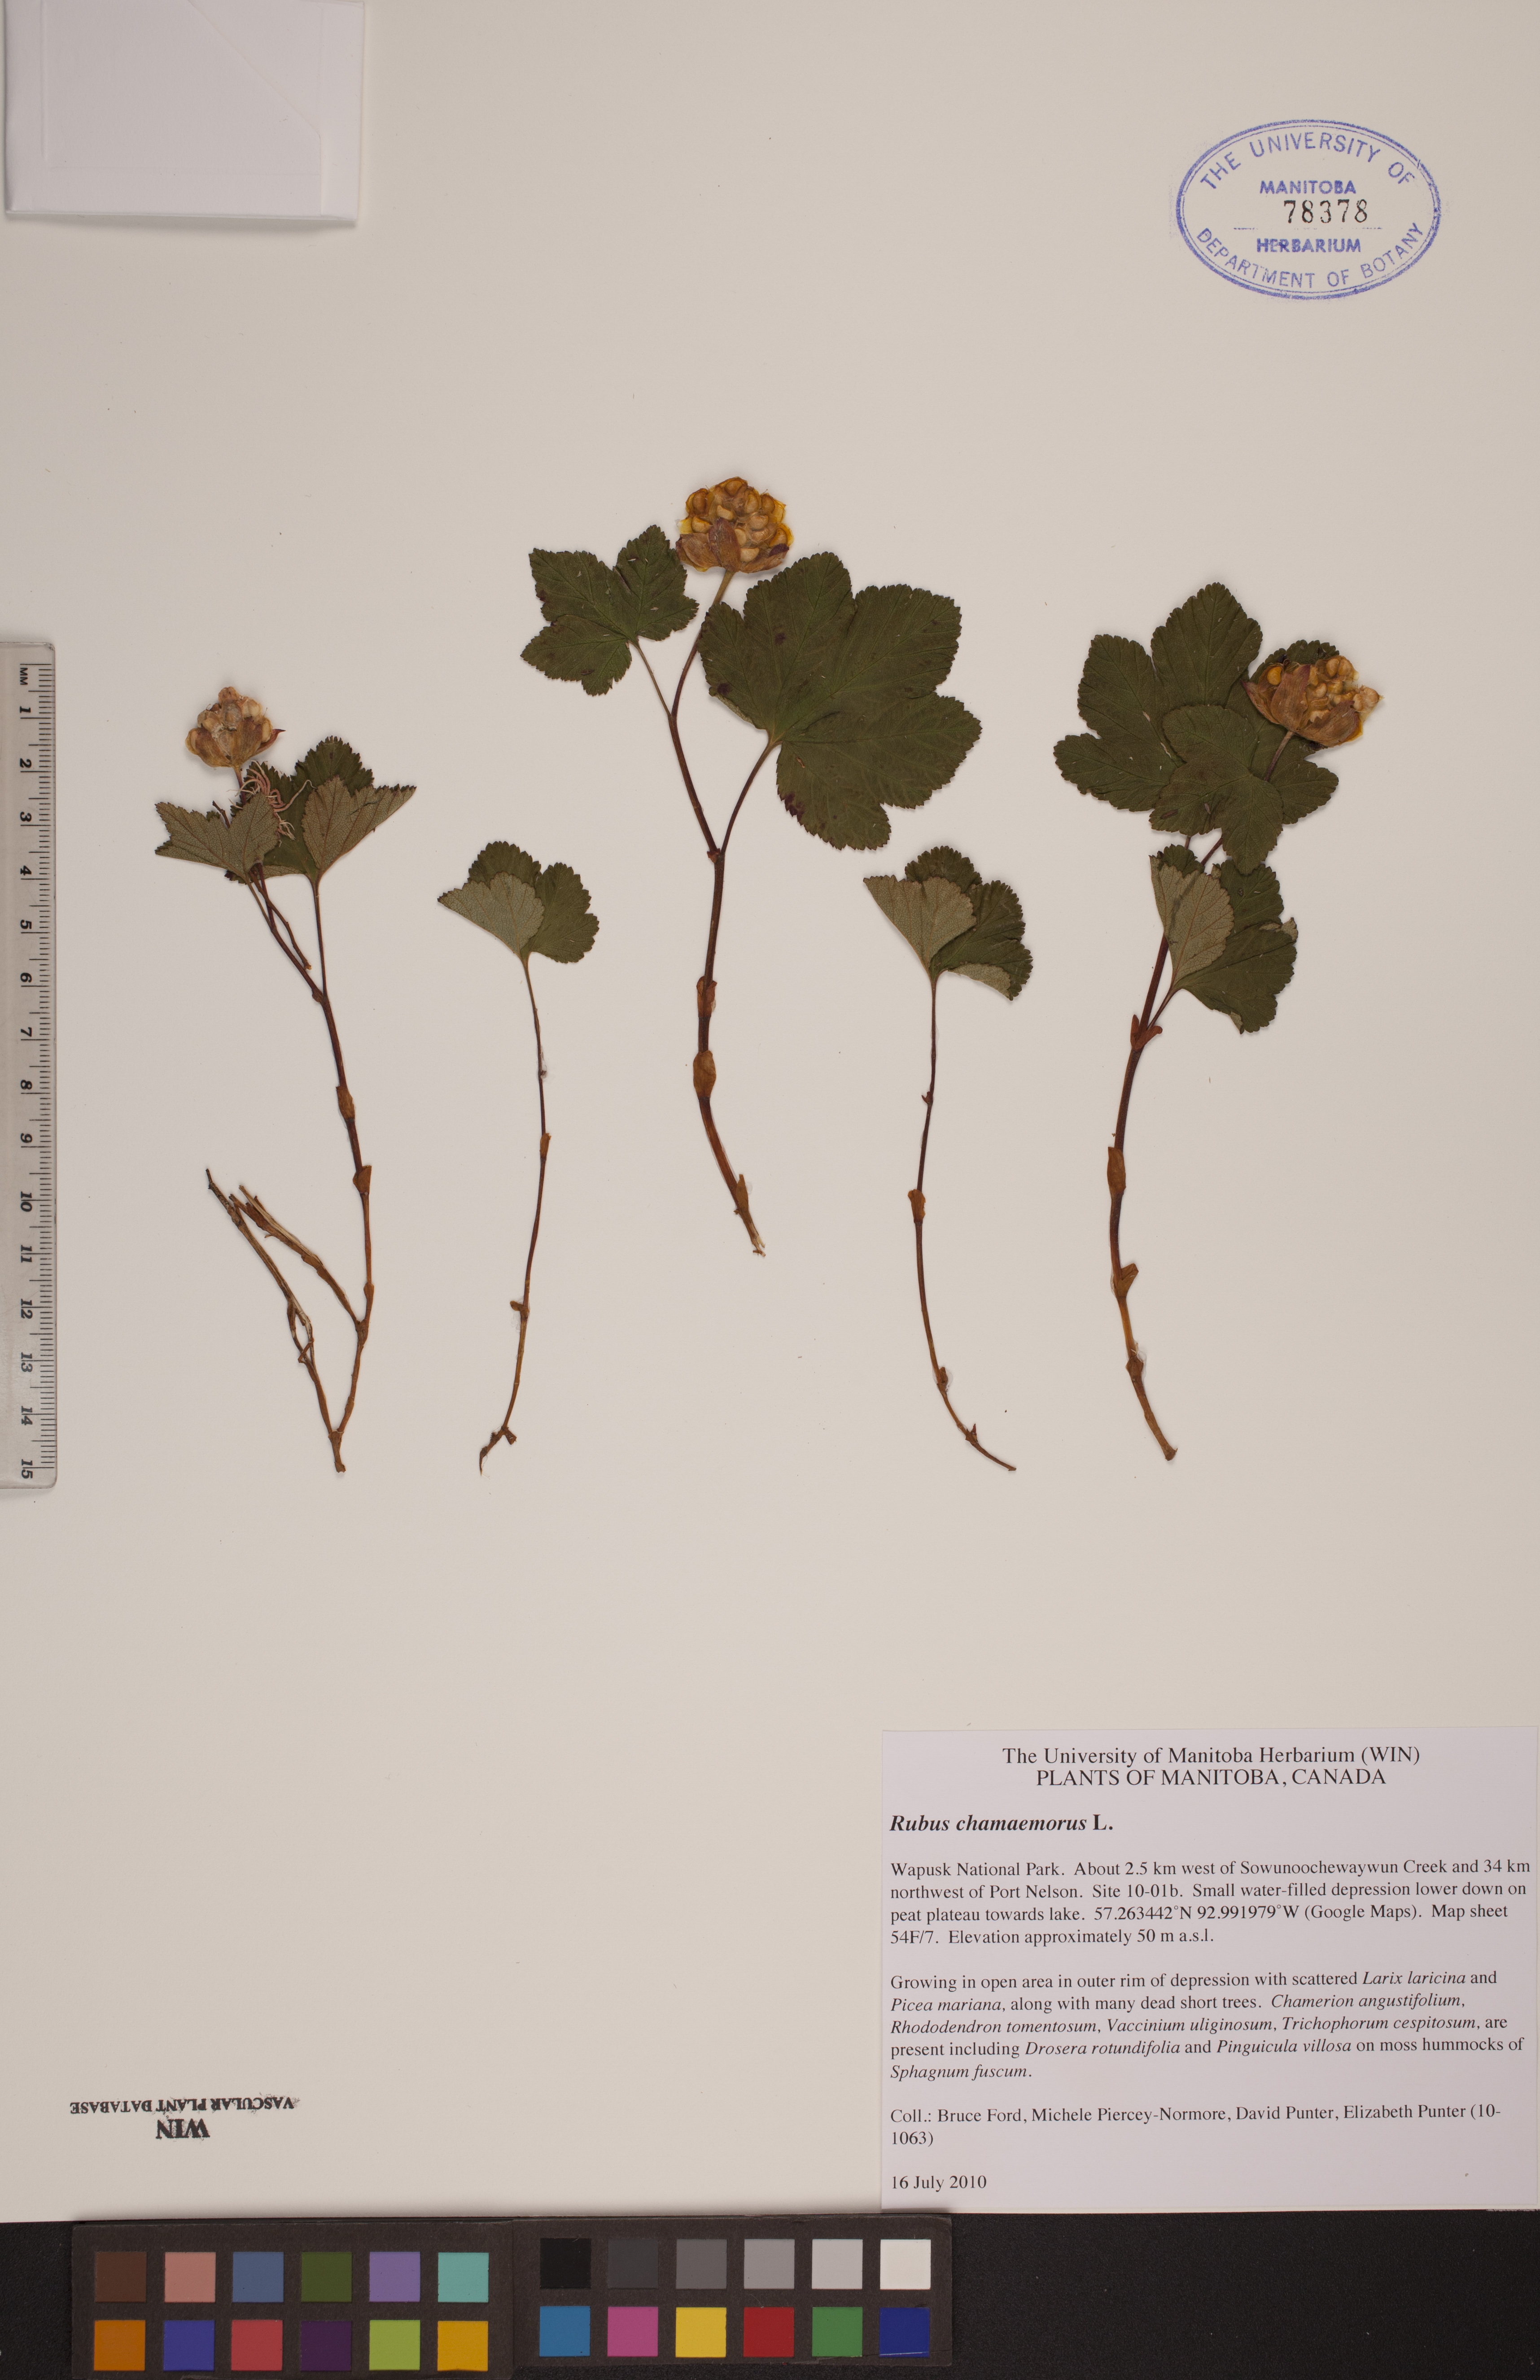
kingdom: Plantae
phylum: Tracheophyta
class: Magnoliopsida
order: Rosales
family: Rosaceae
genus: Rubus
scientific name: Rubus chamaemorus
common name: Cloudberry
